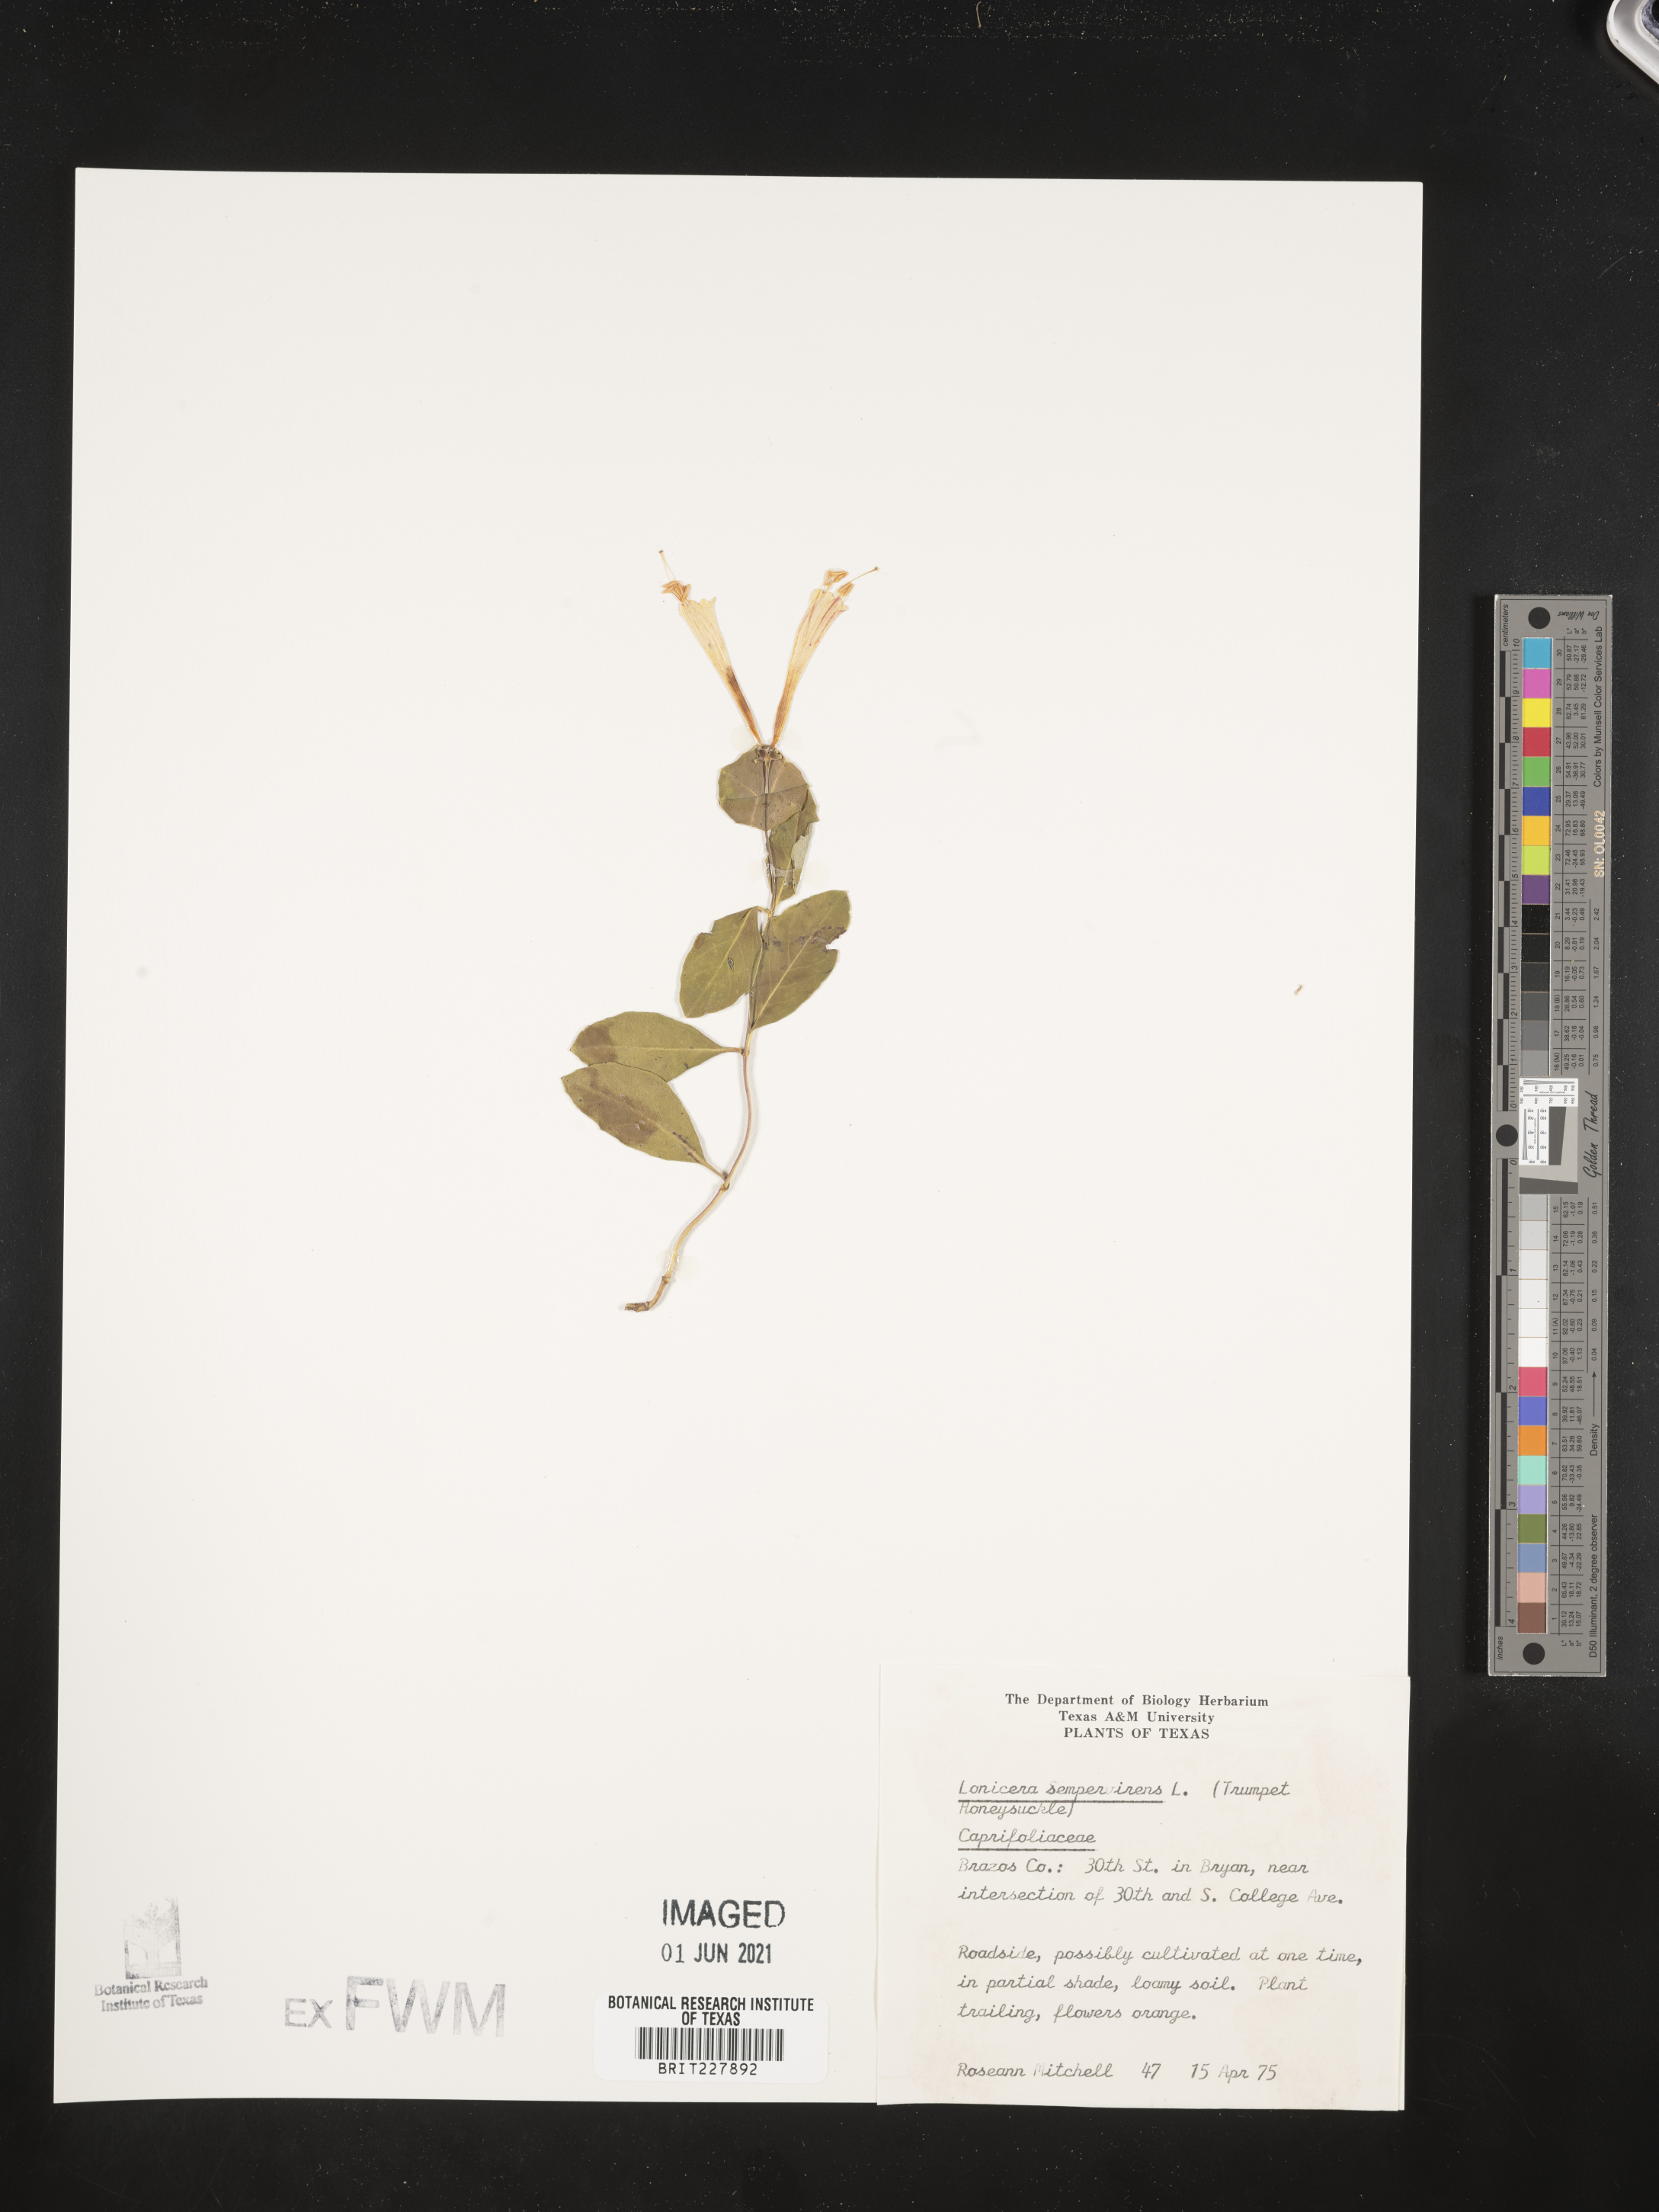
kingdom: Plantae
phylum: Tracheophyta
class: Magnoliopsida
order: Dipsacales
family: Caprifoliaceae
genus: Lonicera
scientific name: Lonicera sempervirens
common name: Coral honeysuckle
